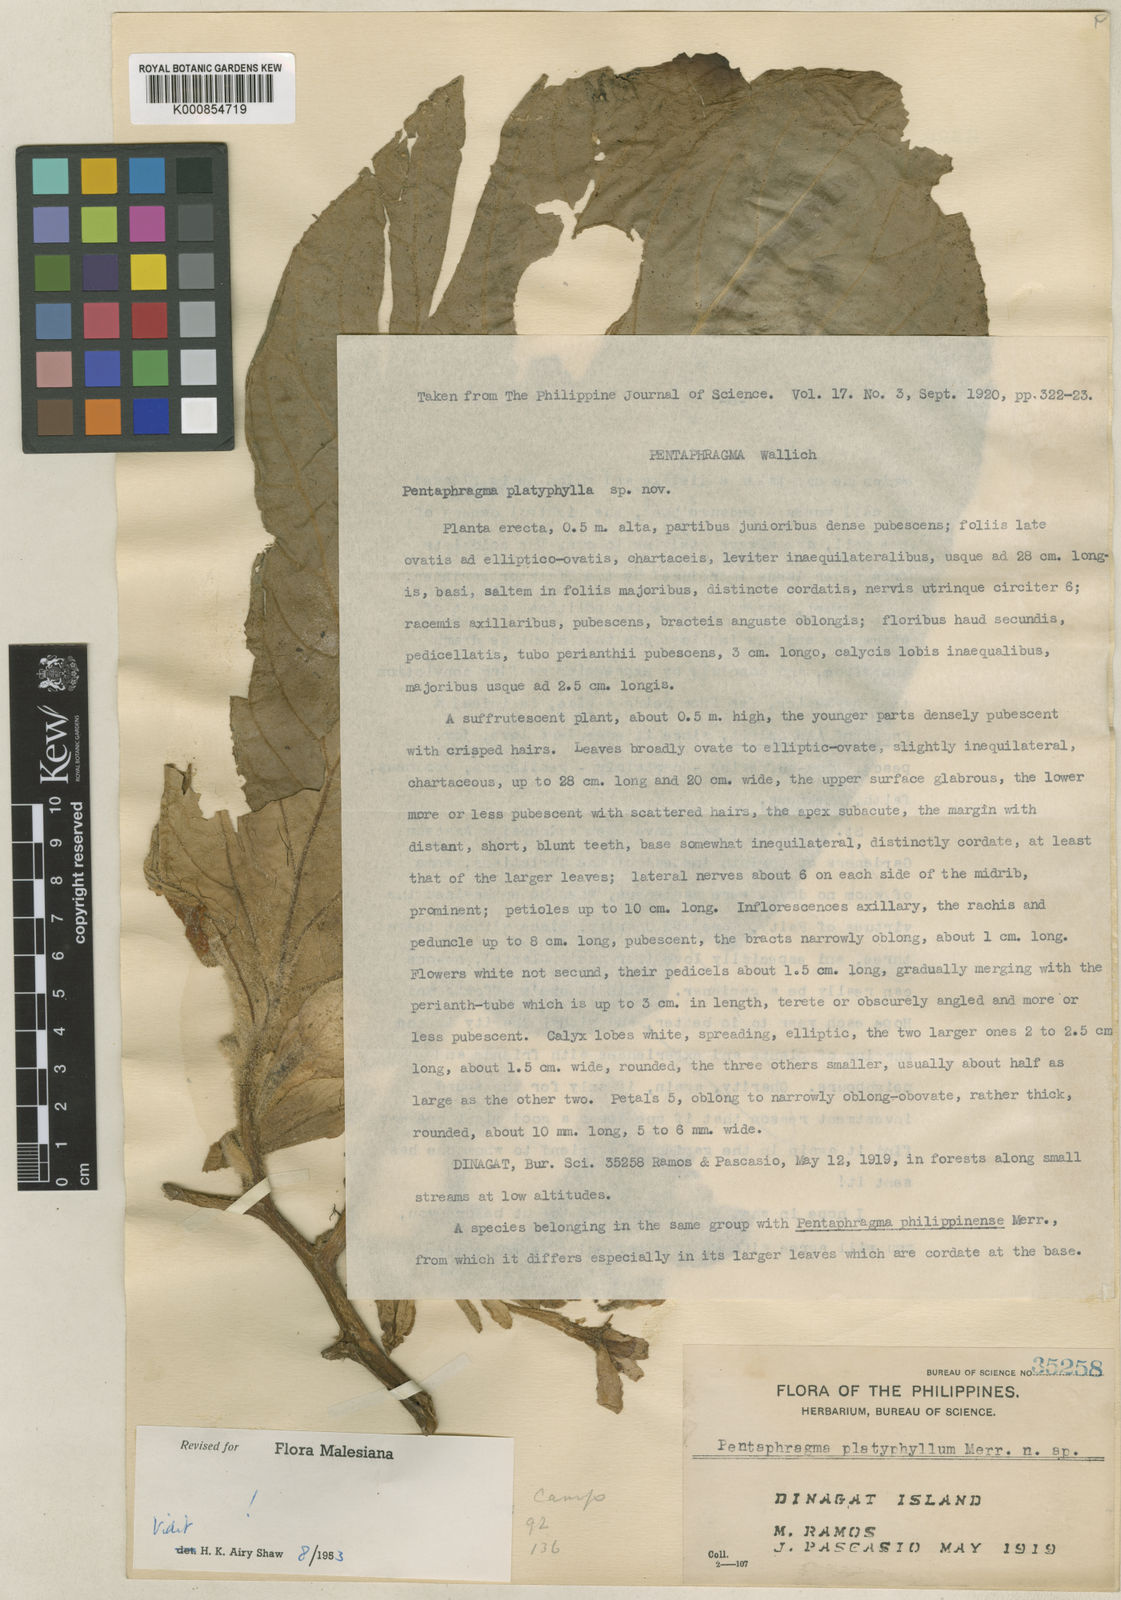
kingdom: Plantae
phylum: Tracheophyta
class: Magnoliopsida
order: Asterales
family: Pentaphragmataceae
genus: Pentaphragma
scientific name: Pentaphragma platyphyllum
